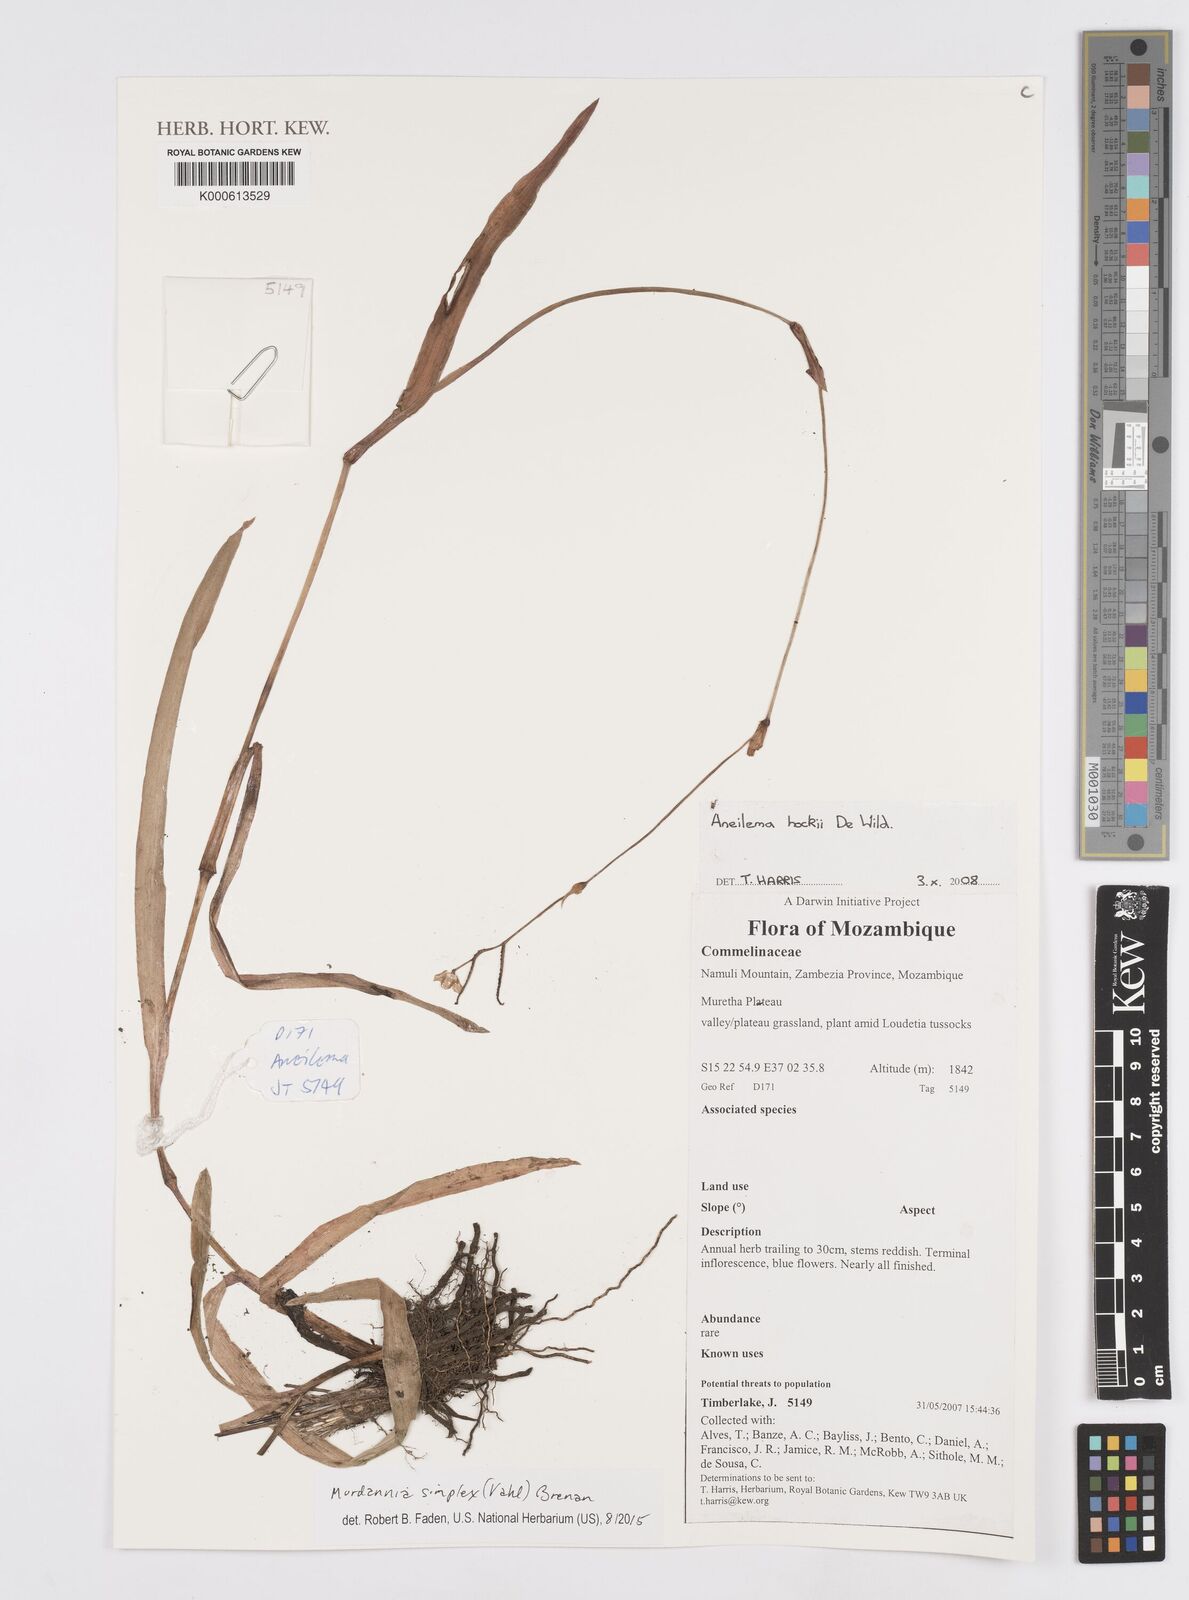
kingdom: Plantae
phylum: Tracheophyta
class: Liliopsida
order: Commelinales
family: Commelinaceae
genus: Aneilema
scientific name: Aneilema hockii
